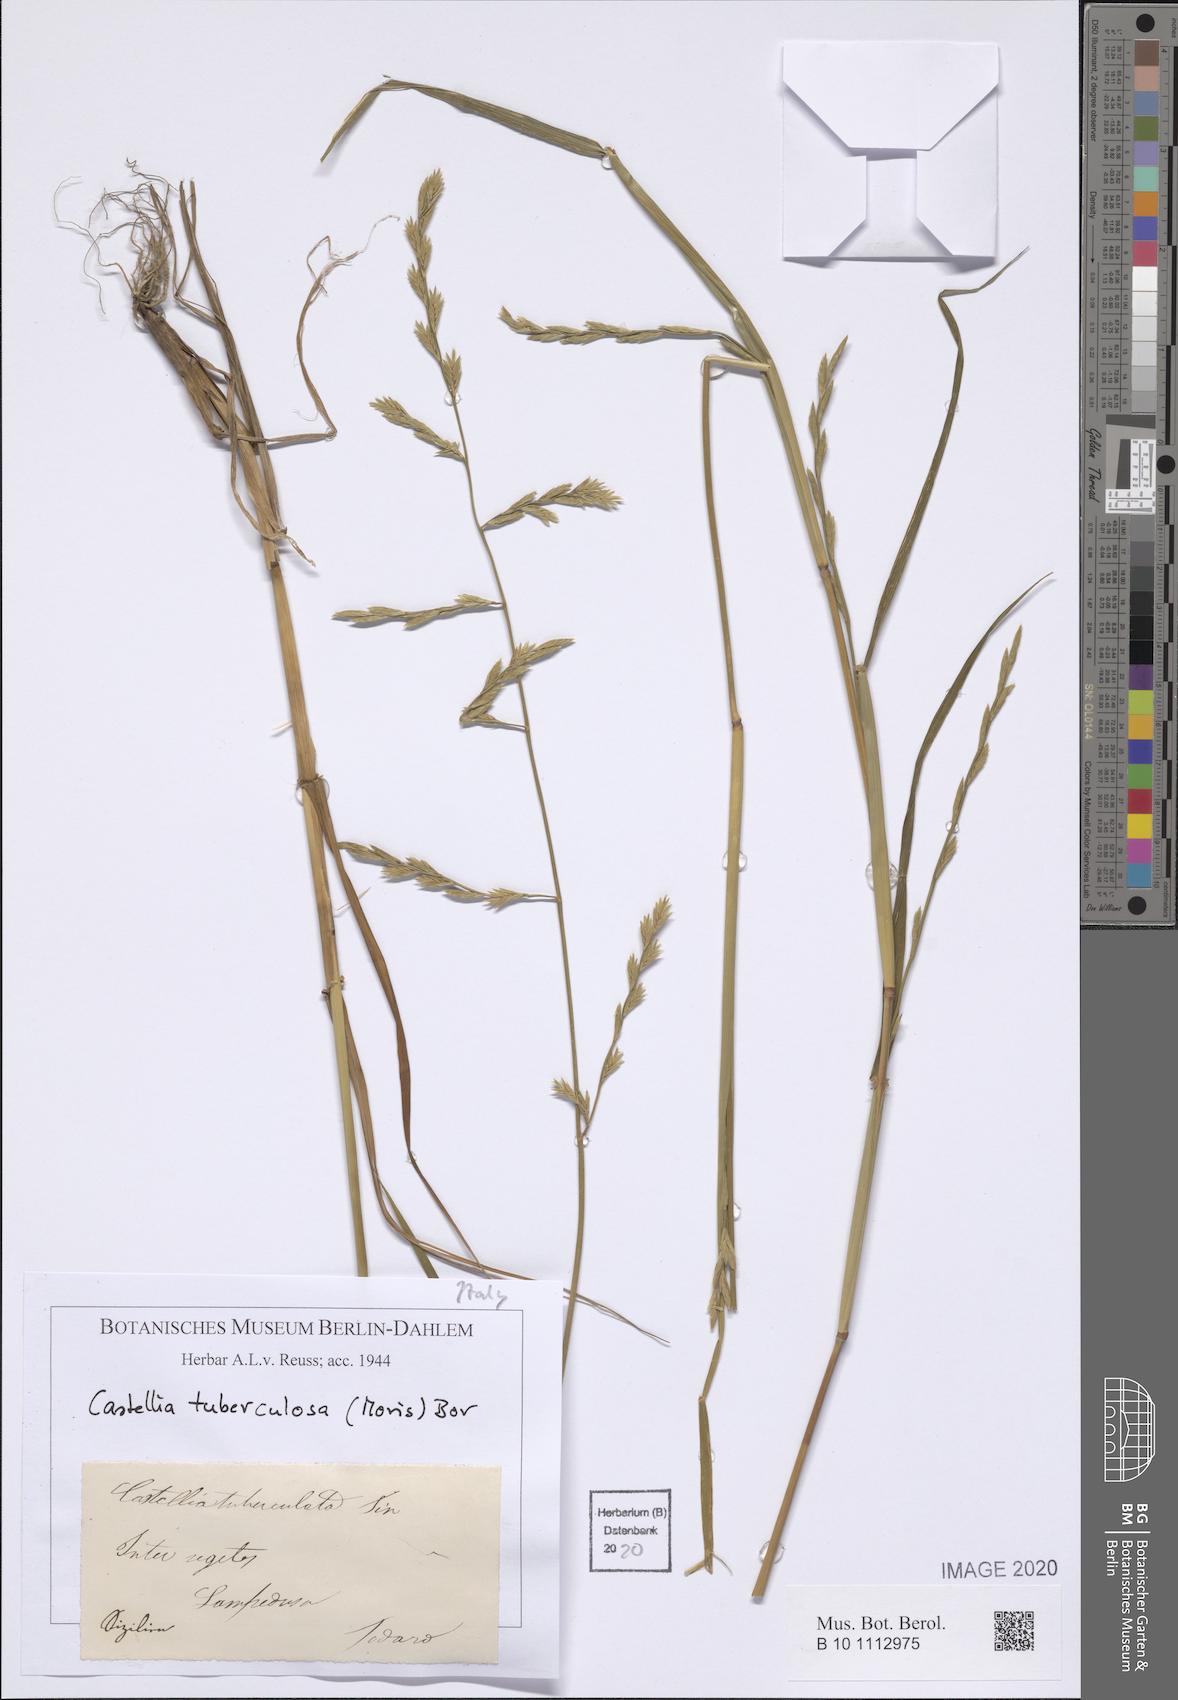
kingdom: Plantae
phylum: Tracheophyta
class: Liliopsida
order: Poales
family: Poaceae
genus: Castellia
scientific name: Castellia tuberculosa
